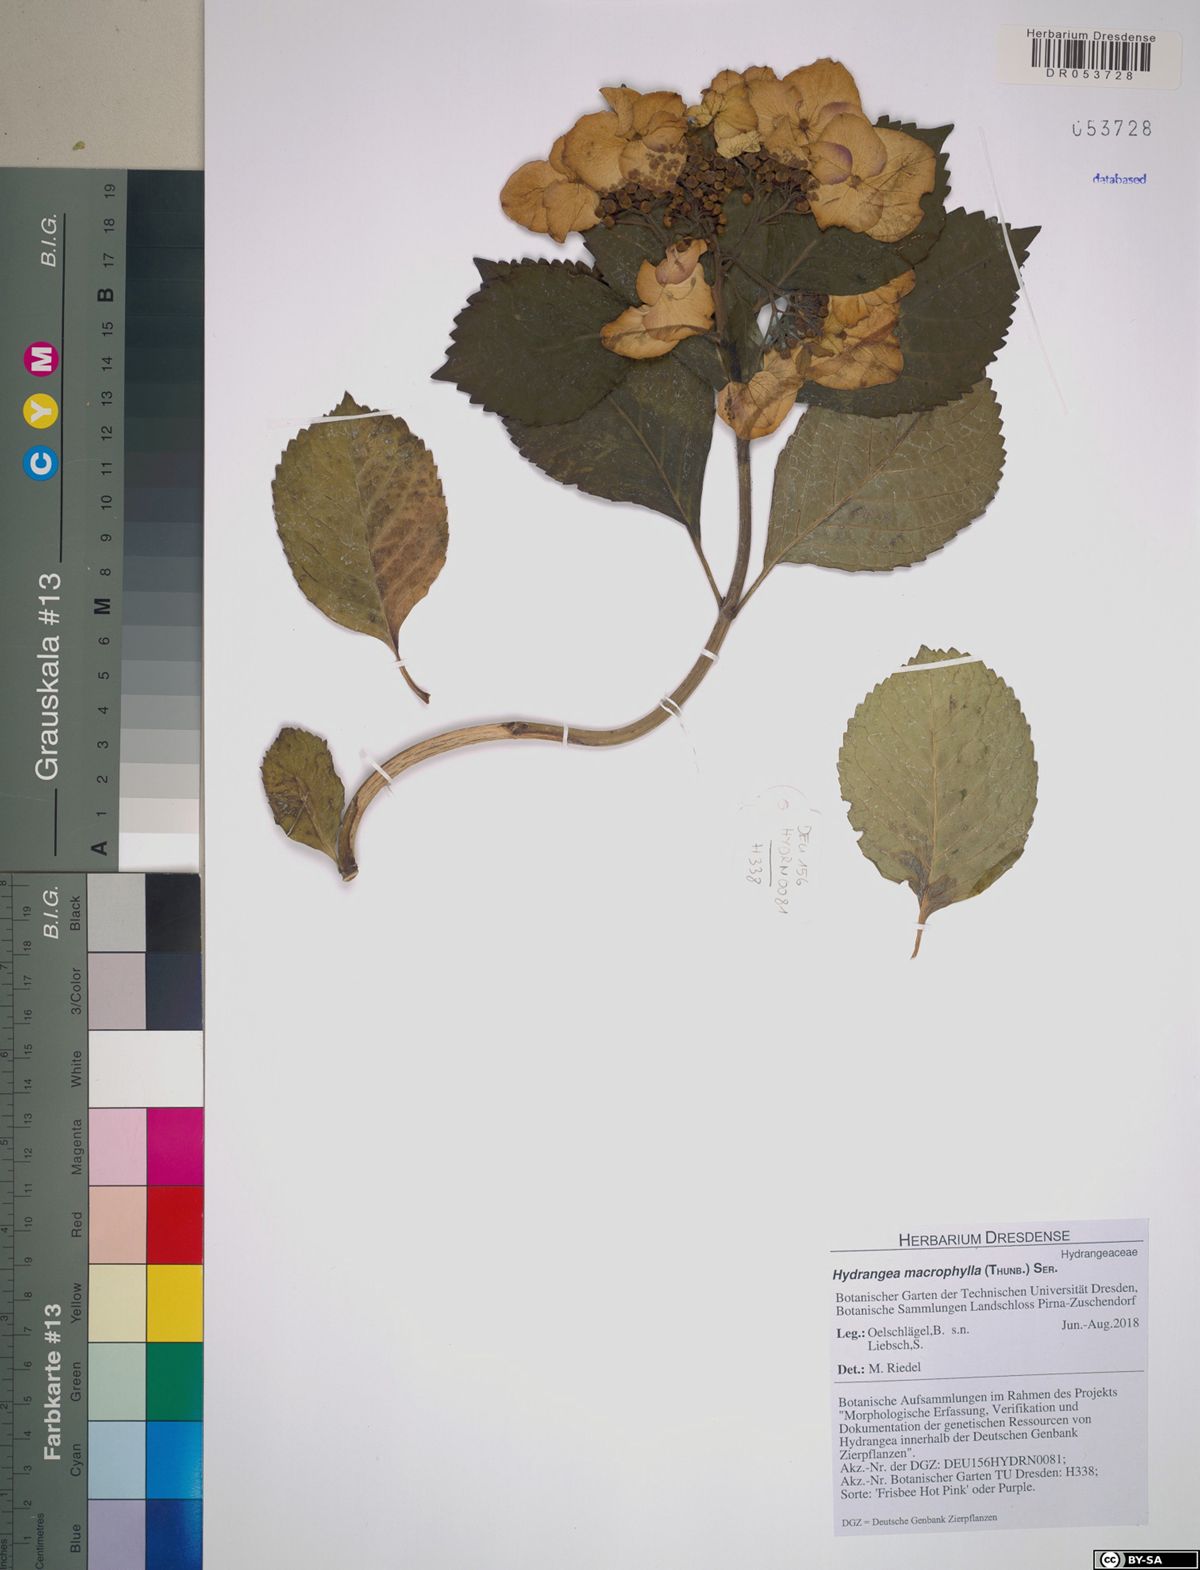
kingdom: Plantae
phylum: Tracheophyta
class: Magnoliopsida
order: Cornales
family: Hydrangeaceae
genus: Hydrangea
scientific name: Hydrangea macrophylla
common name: Hydrangea
